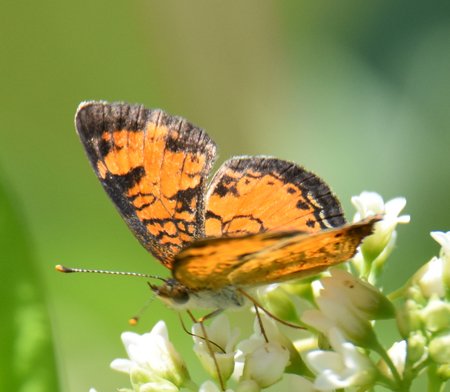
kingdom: Animalia
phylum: Arthropoda
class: Insecta
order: Lepidoptera
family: Nymphalidae
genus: Phyciodes
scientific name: Phyciodes tharos
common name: Northern Crescent
